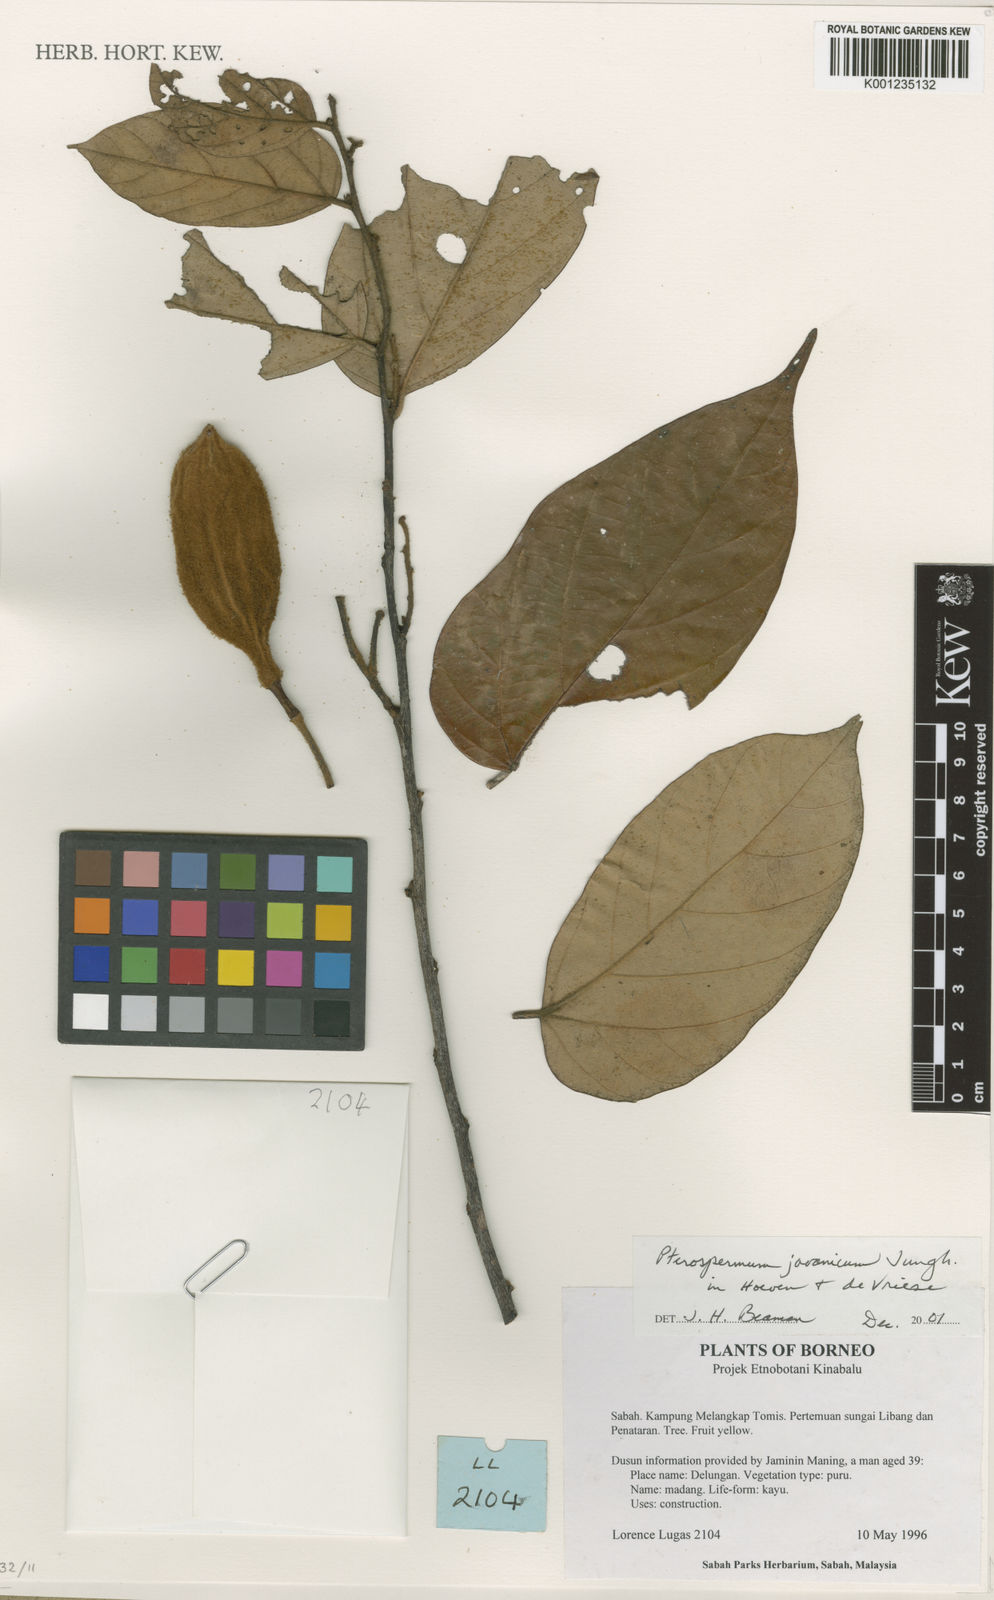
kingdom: Plantae
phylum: Tracheophyta
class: Magnoliopsida
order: Malvales
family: Malvaceae
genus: Pterospermum
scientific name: Pterospermum javanicum
